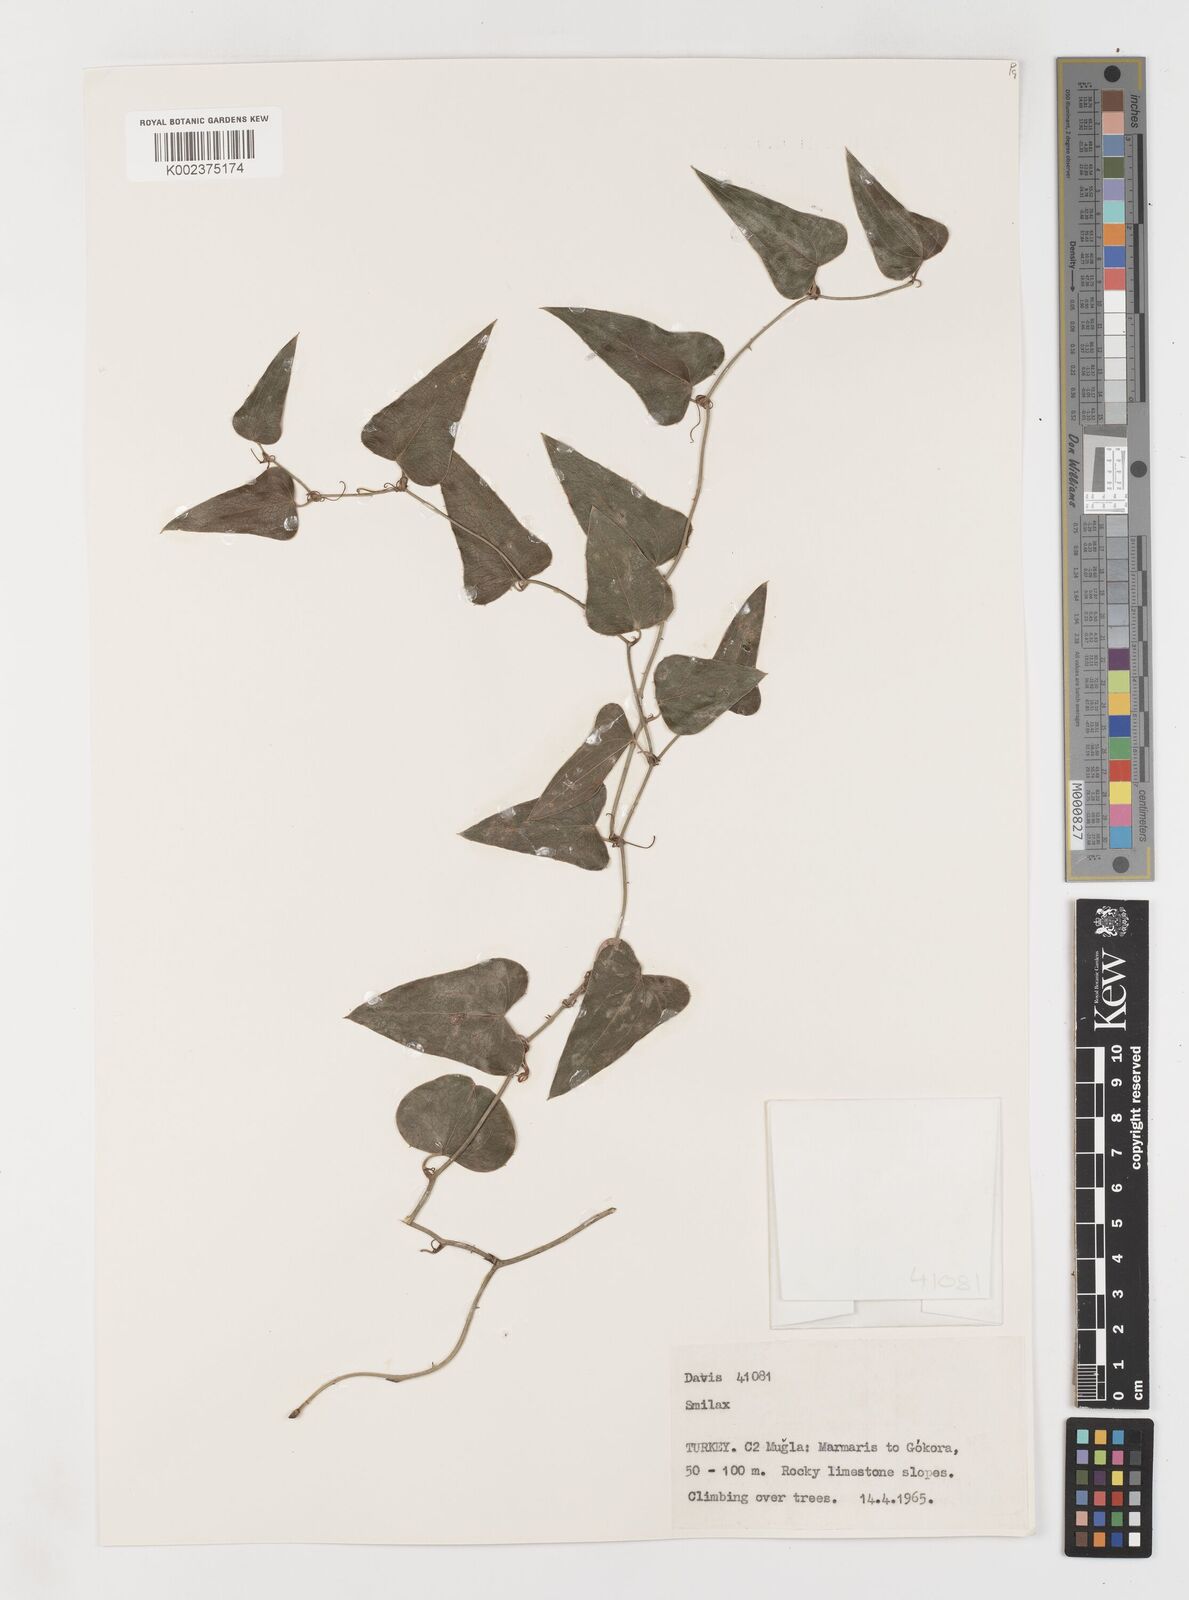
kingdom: Plantae
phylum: Tracheophyta
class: Liliopsida
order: Liliales
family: Smilacaceae
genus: Smilax
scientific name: Smilax aspera
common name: Common smilax
